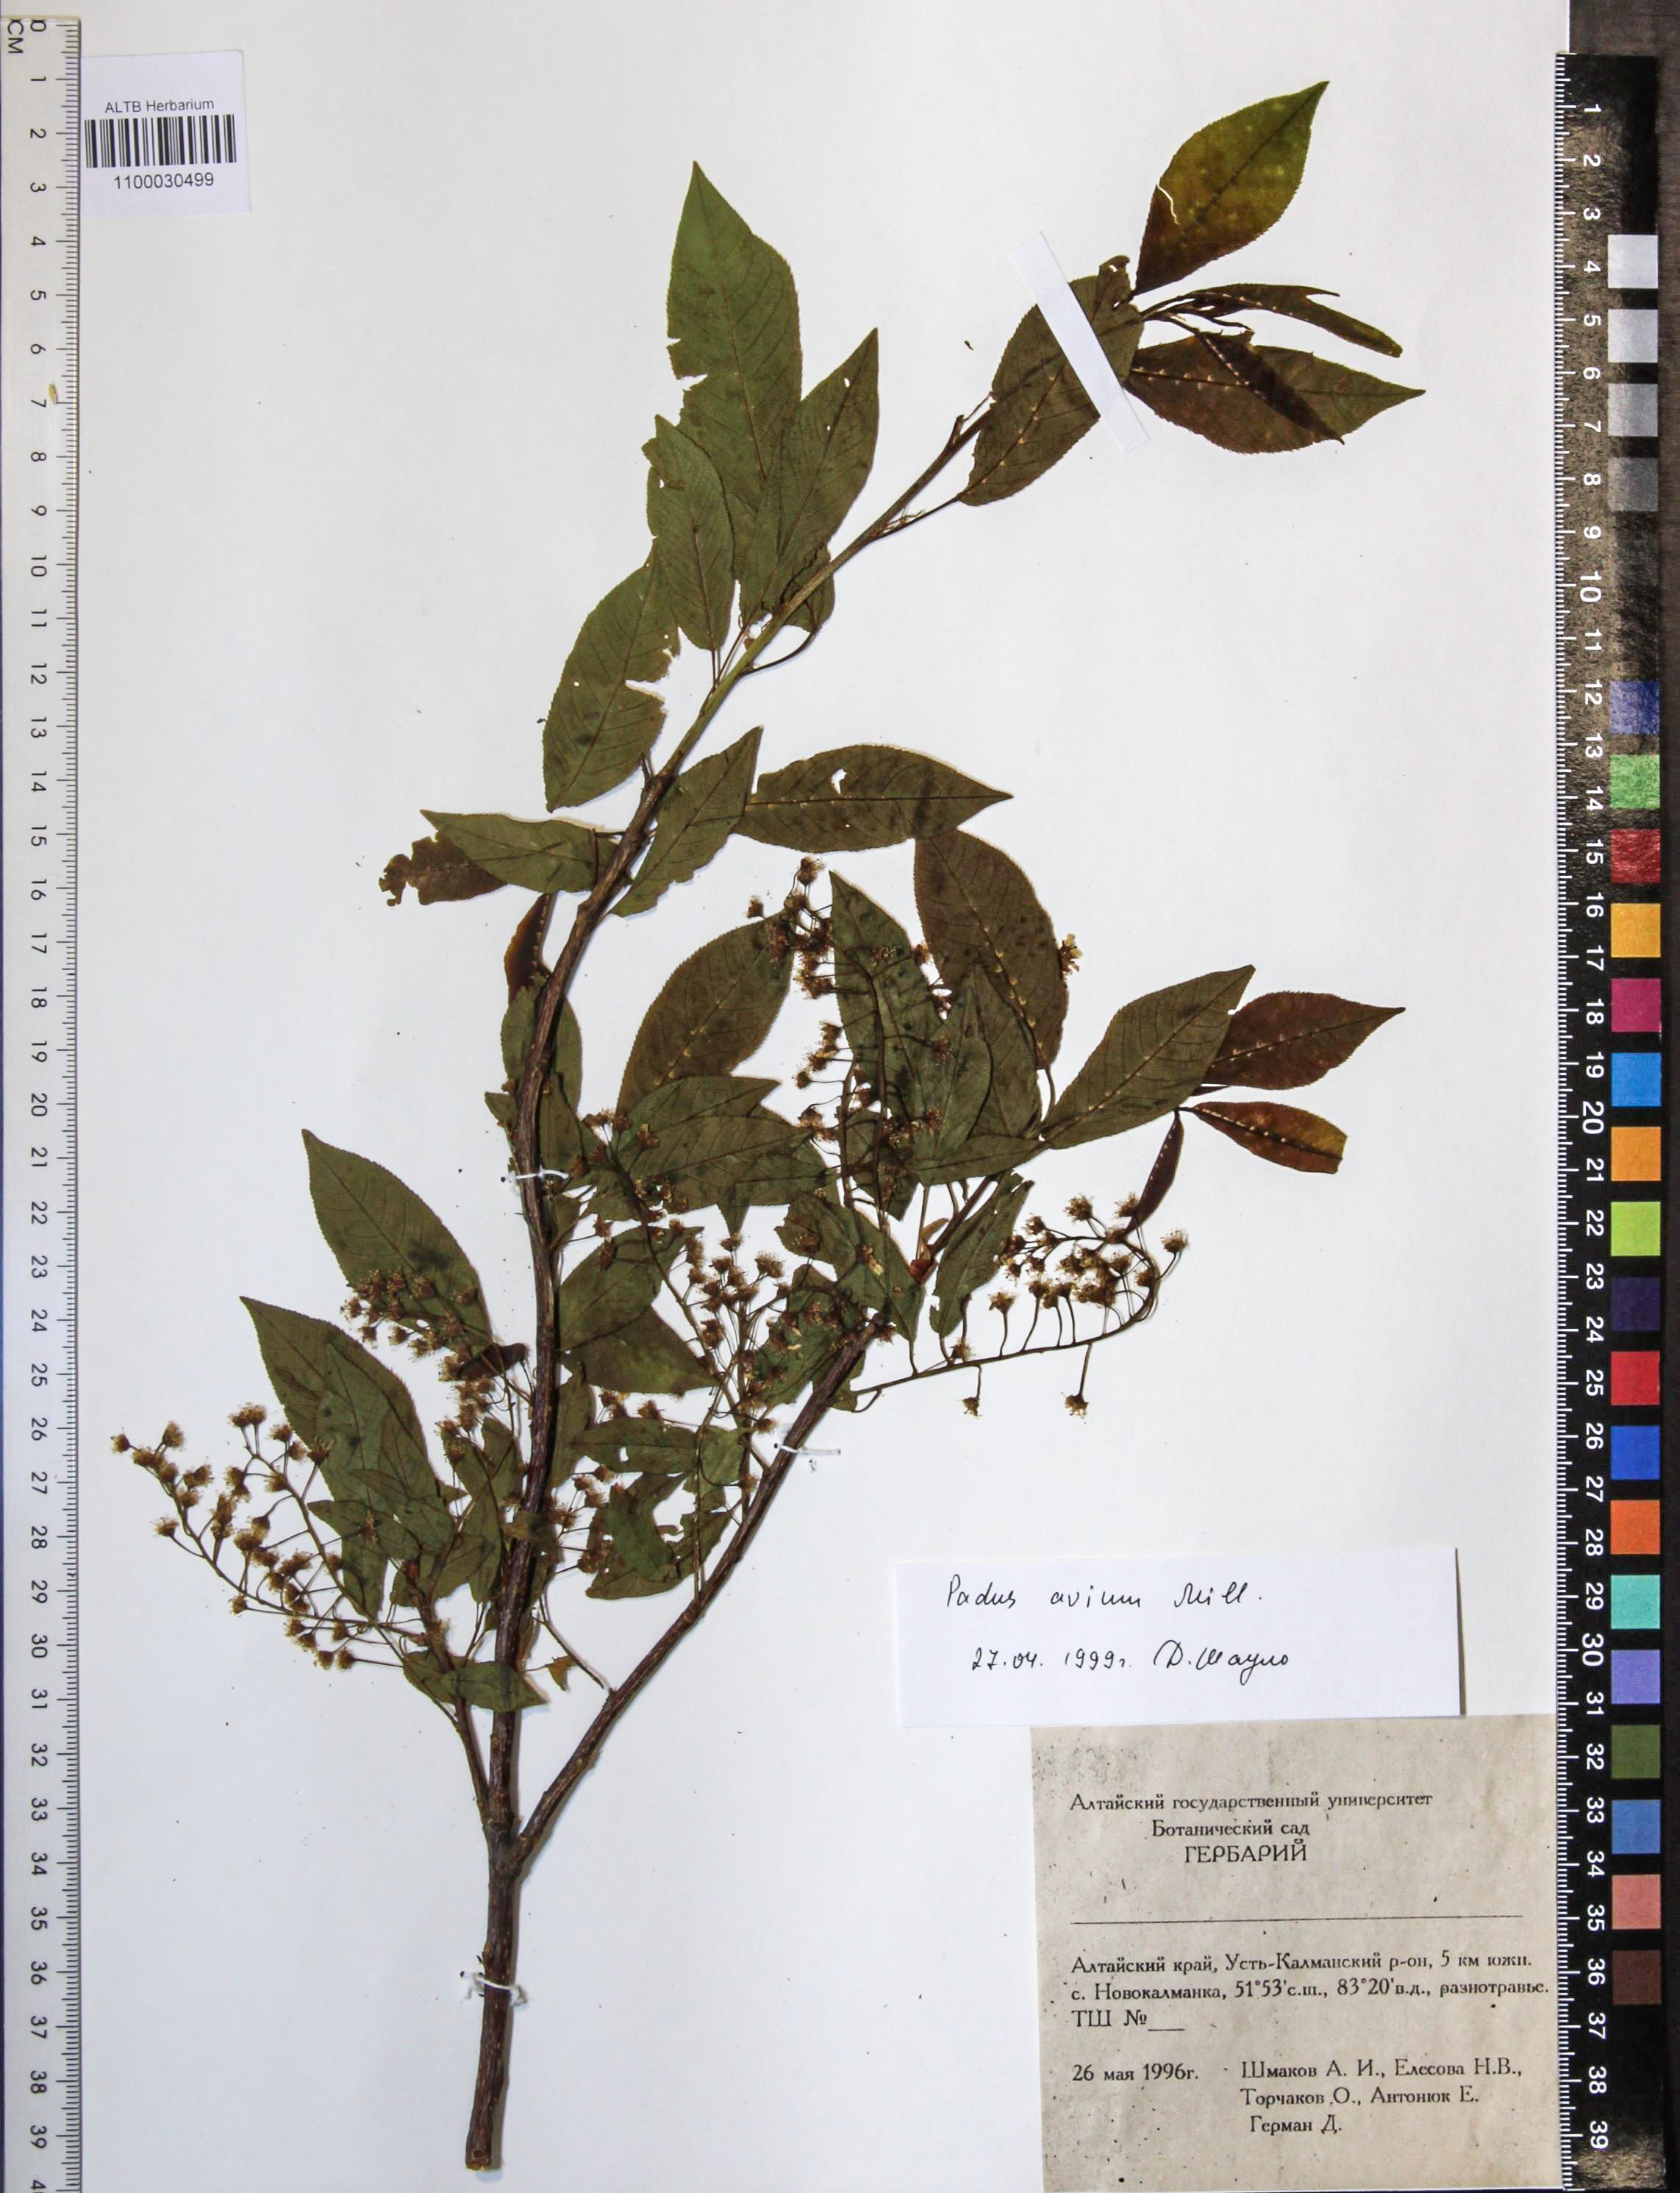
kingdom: Plantae
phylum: Tracheophyta
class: Magnoliopsida
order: Rosales
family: Rosaceae
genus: Prunus
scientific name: Prunus padus
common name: Bird cherry
